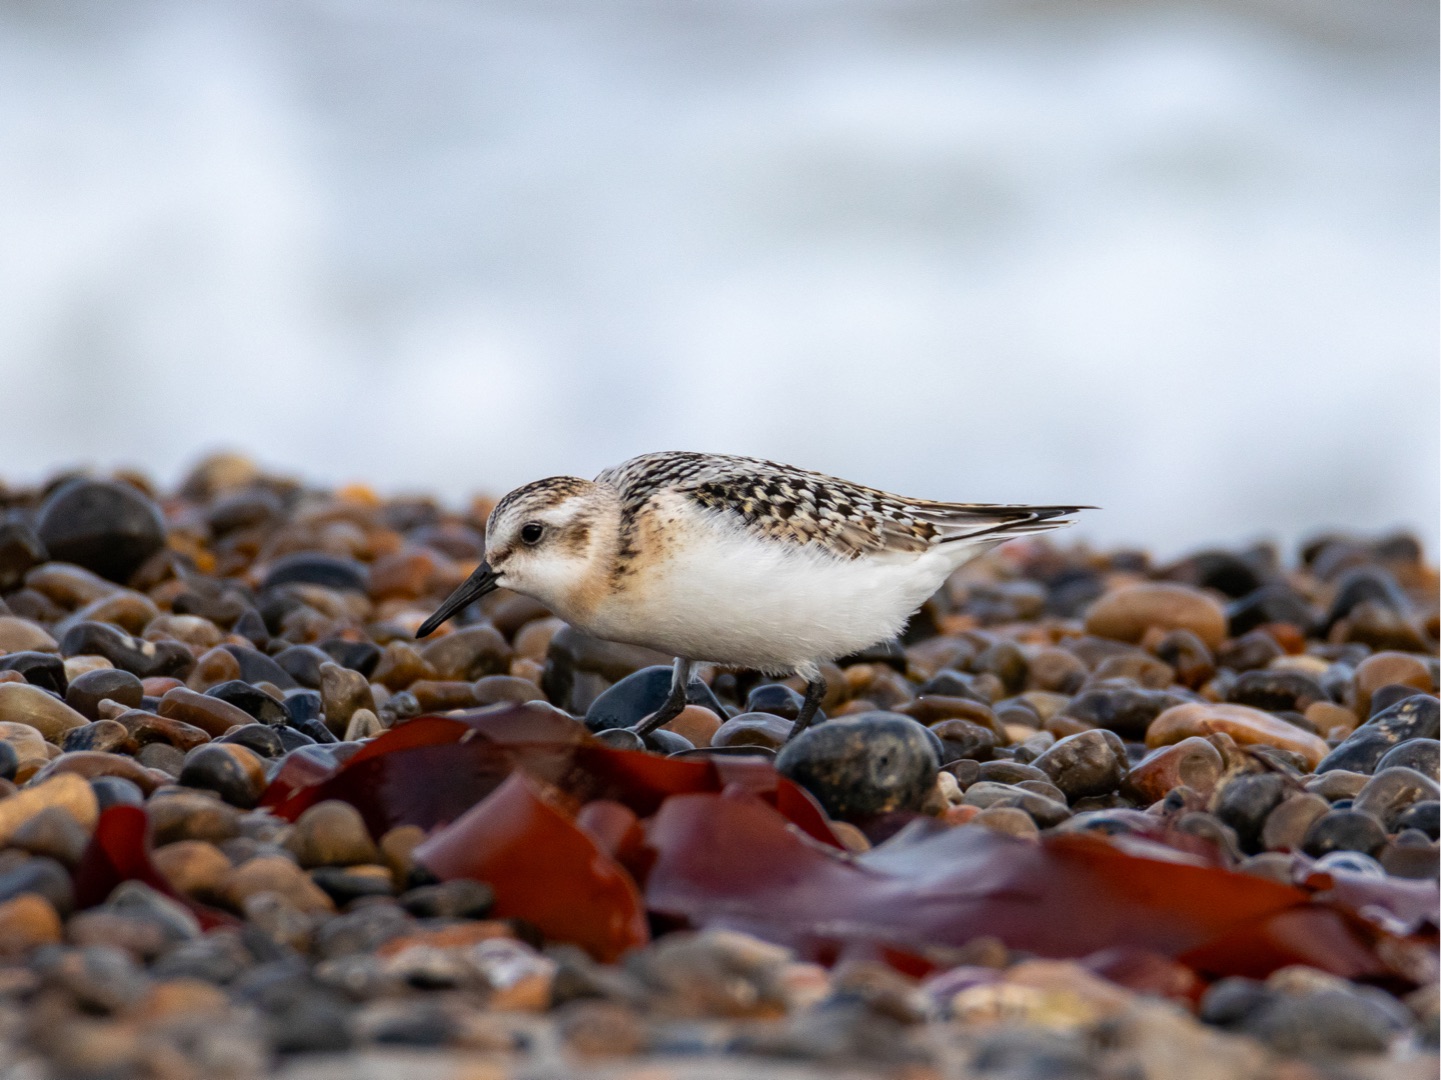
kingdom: Animalia
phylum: Chordata
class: Aves
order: Charadriiformes
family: Scolopacidae
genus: Calidris
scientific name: Calidris alba
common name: Sandløber
